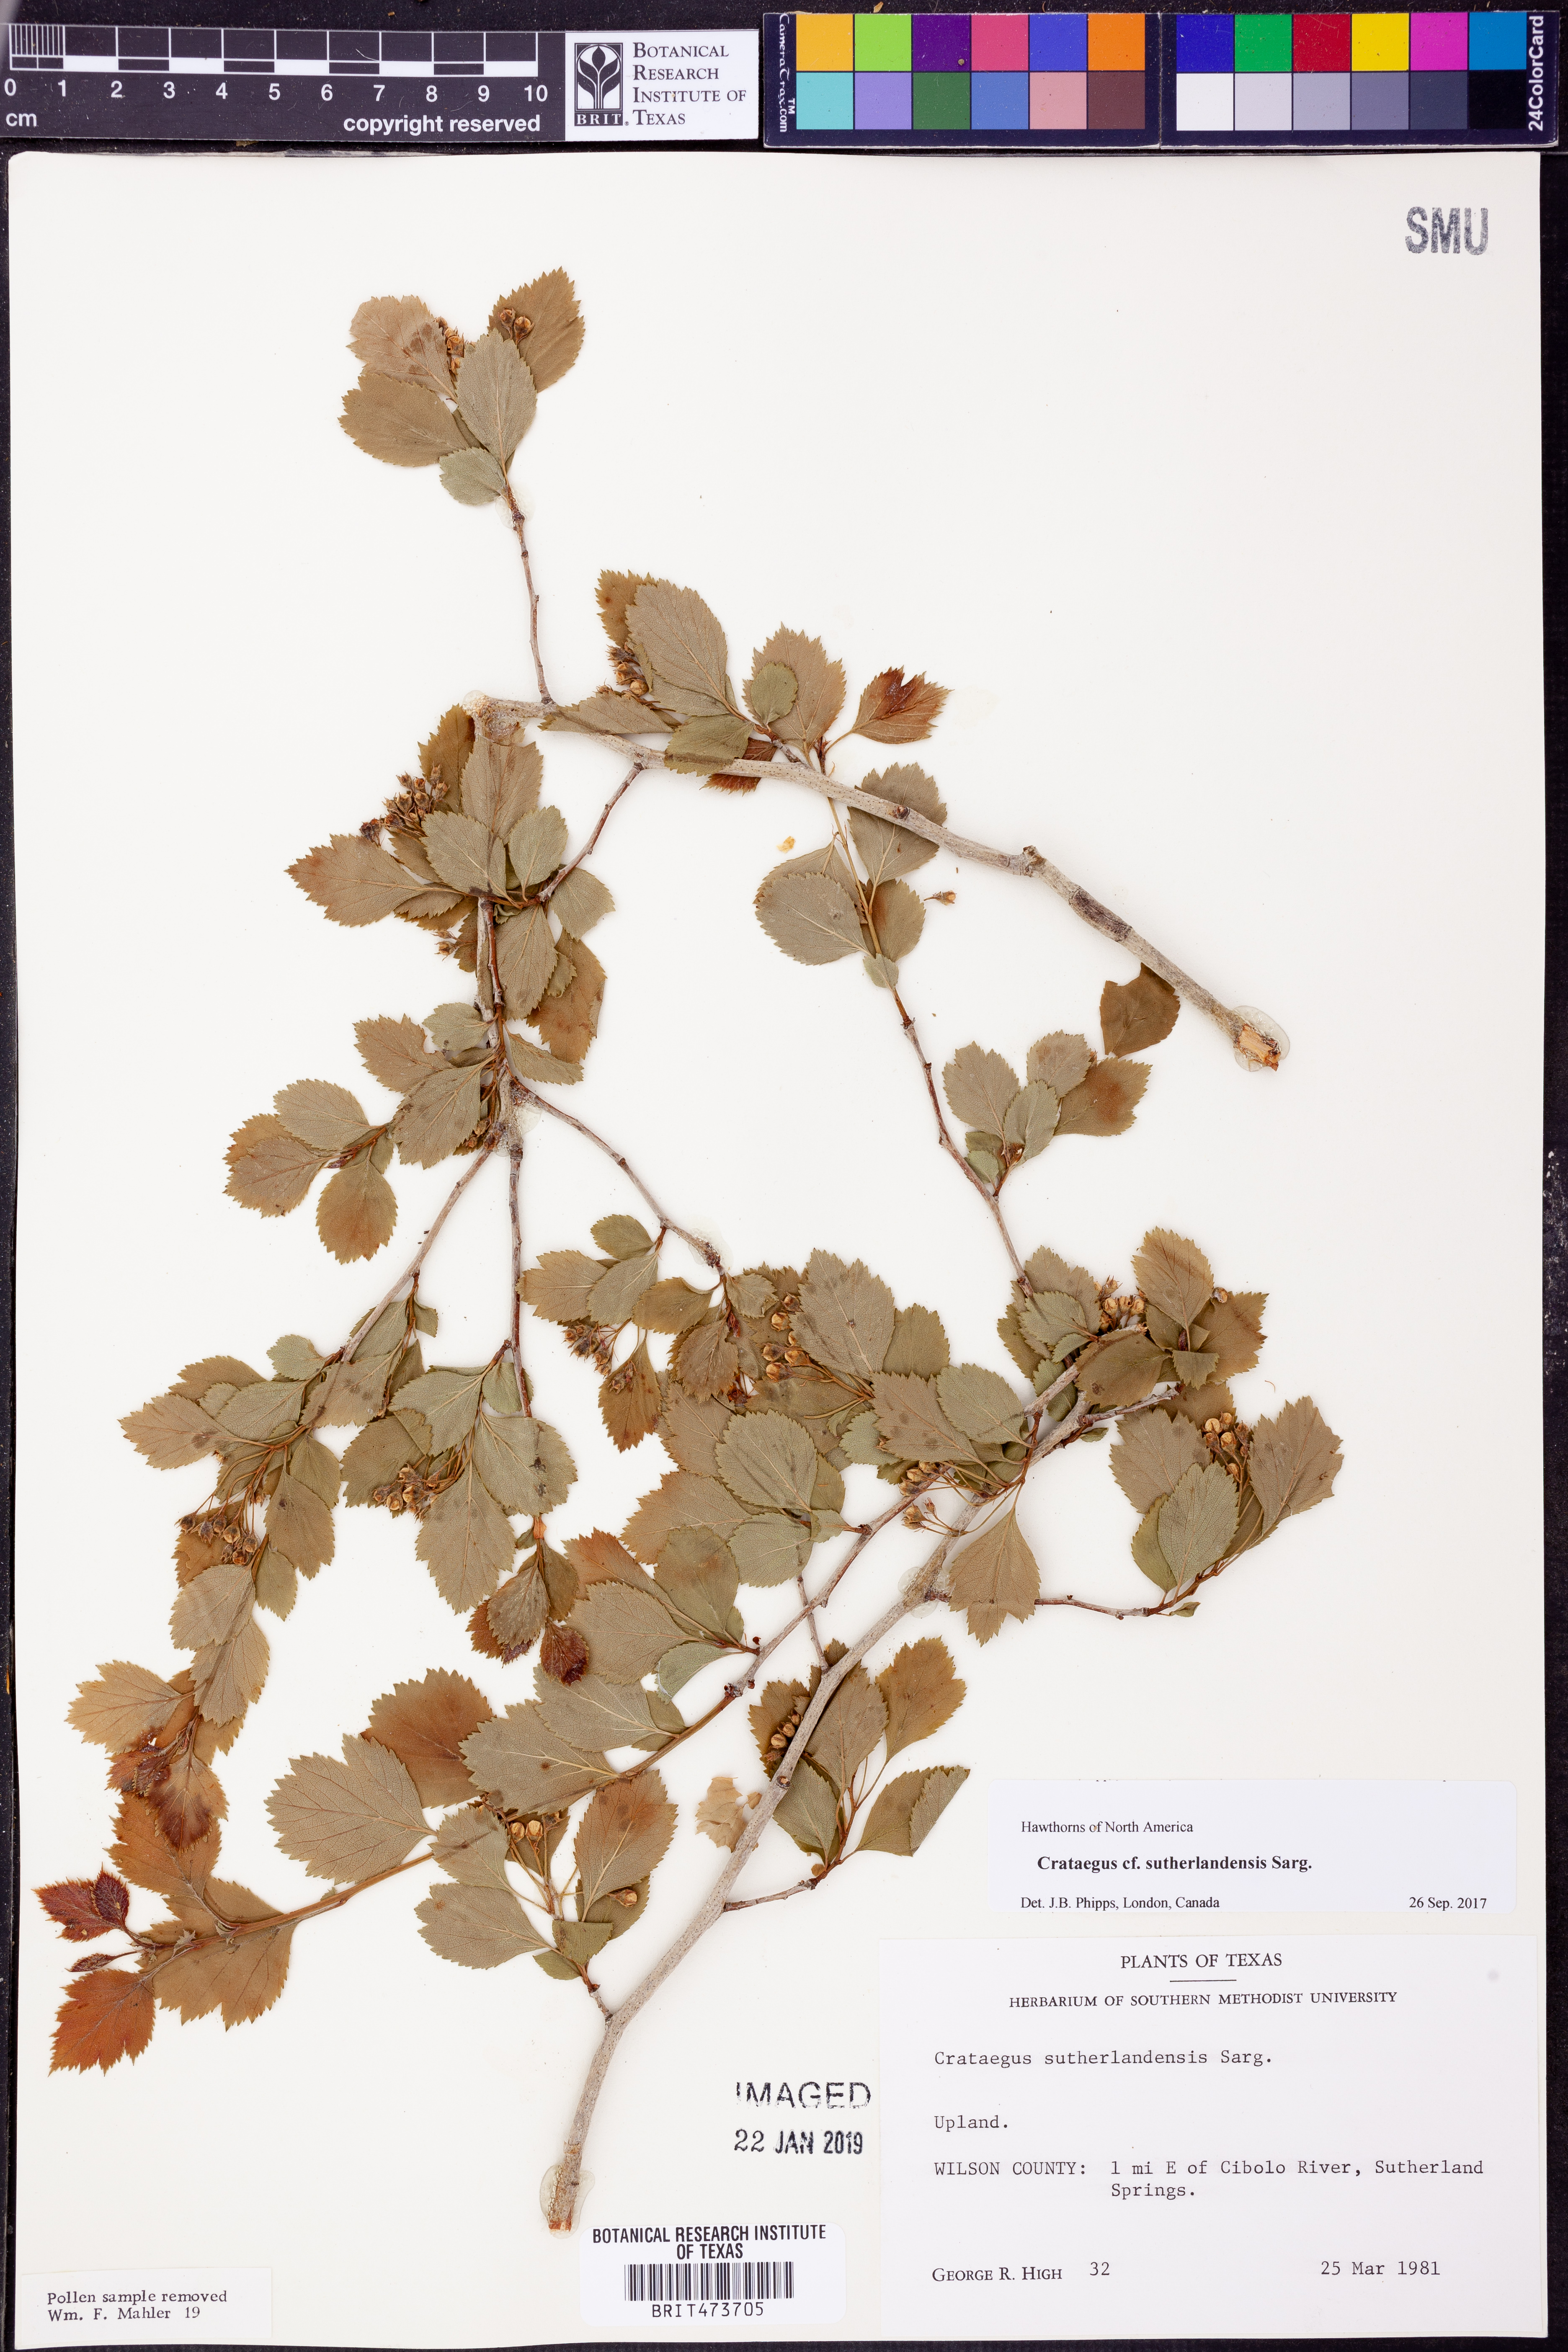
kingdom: Plantae
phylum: Tracheophyta
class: Magnoliopsida
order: Rosales
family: Rosaceae
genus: Crataegus
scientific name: Crataegus viridis
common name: Southernthorn
